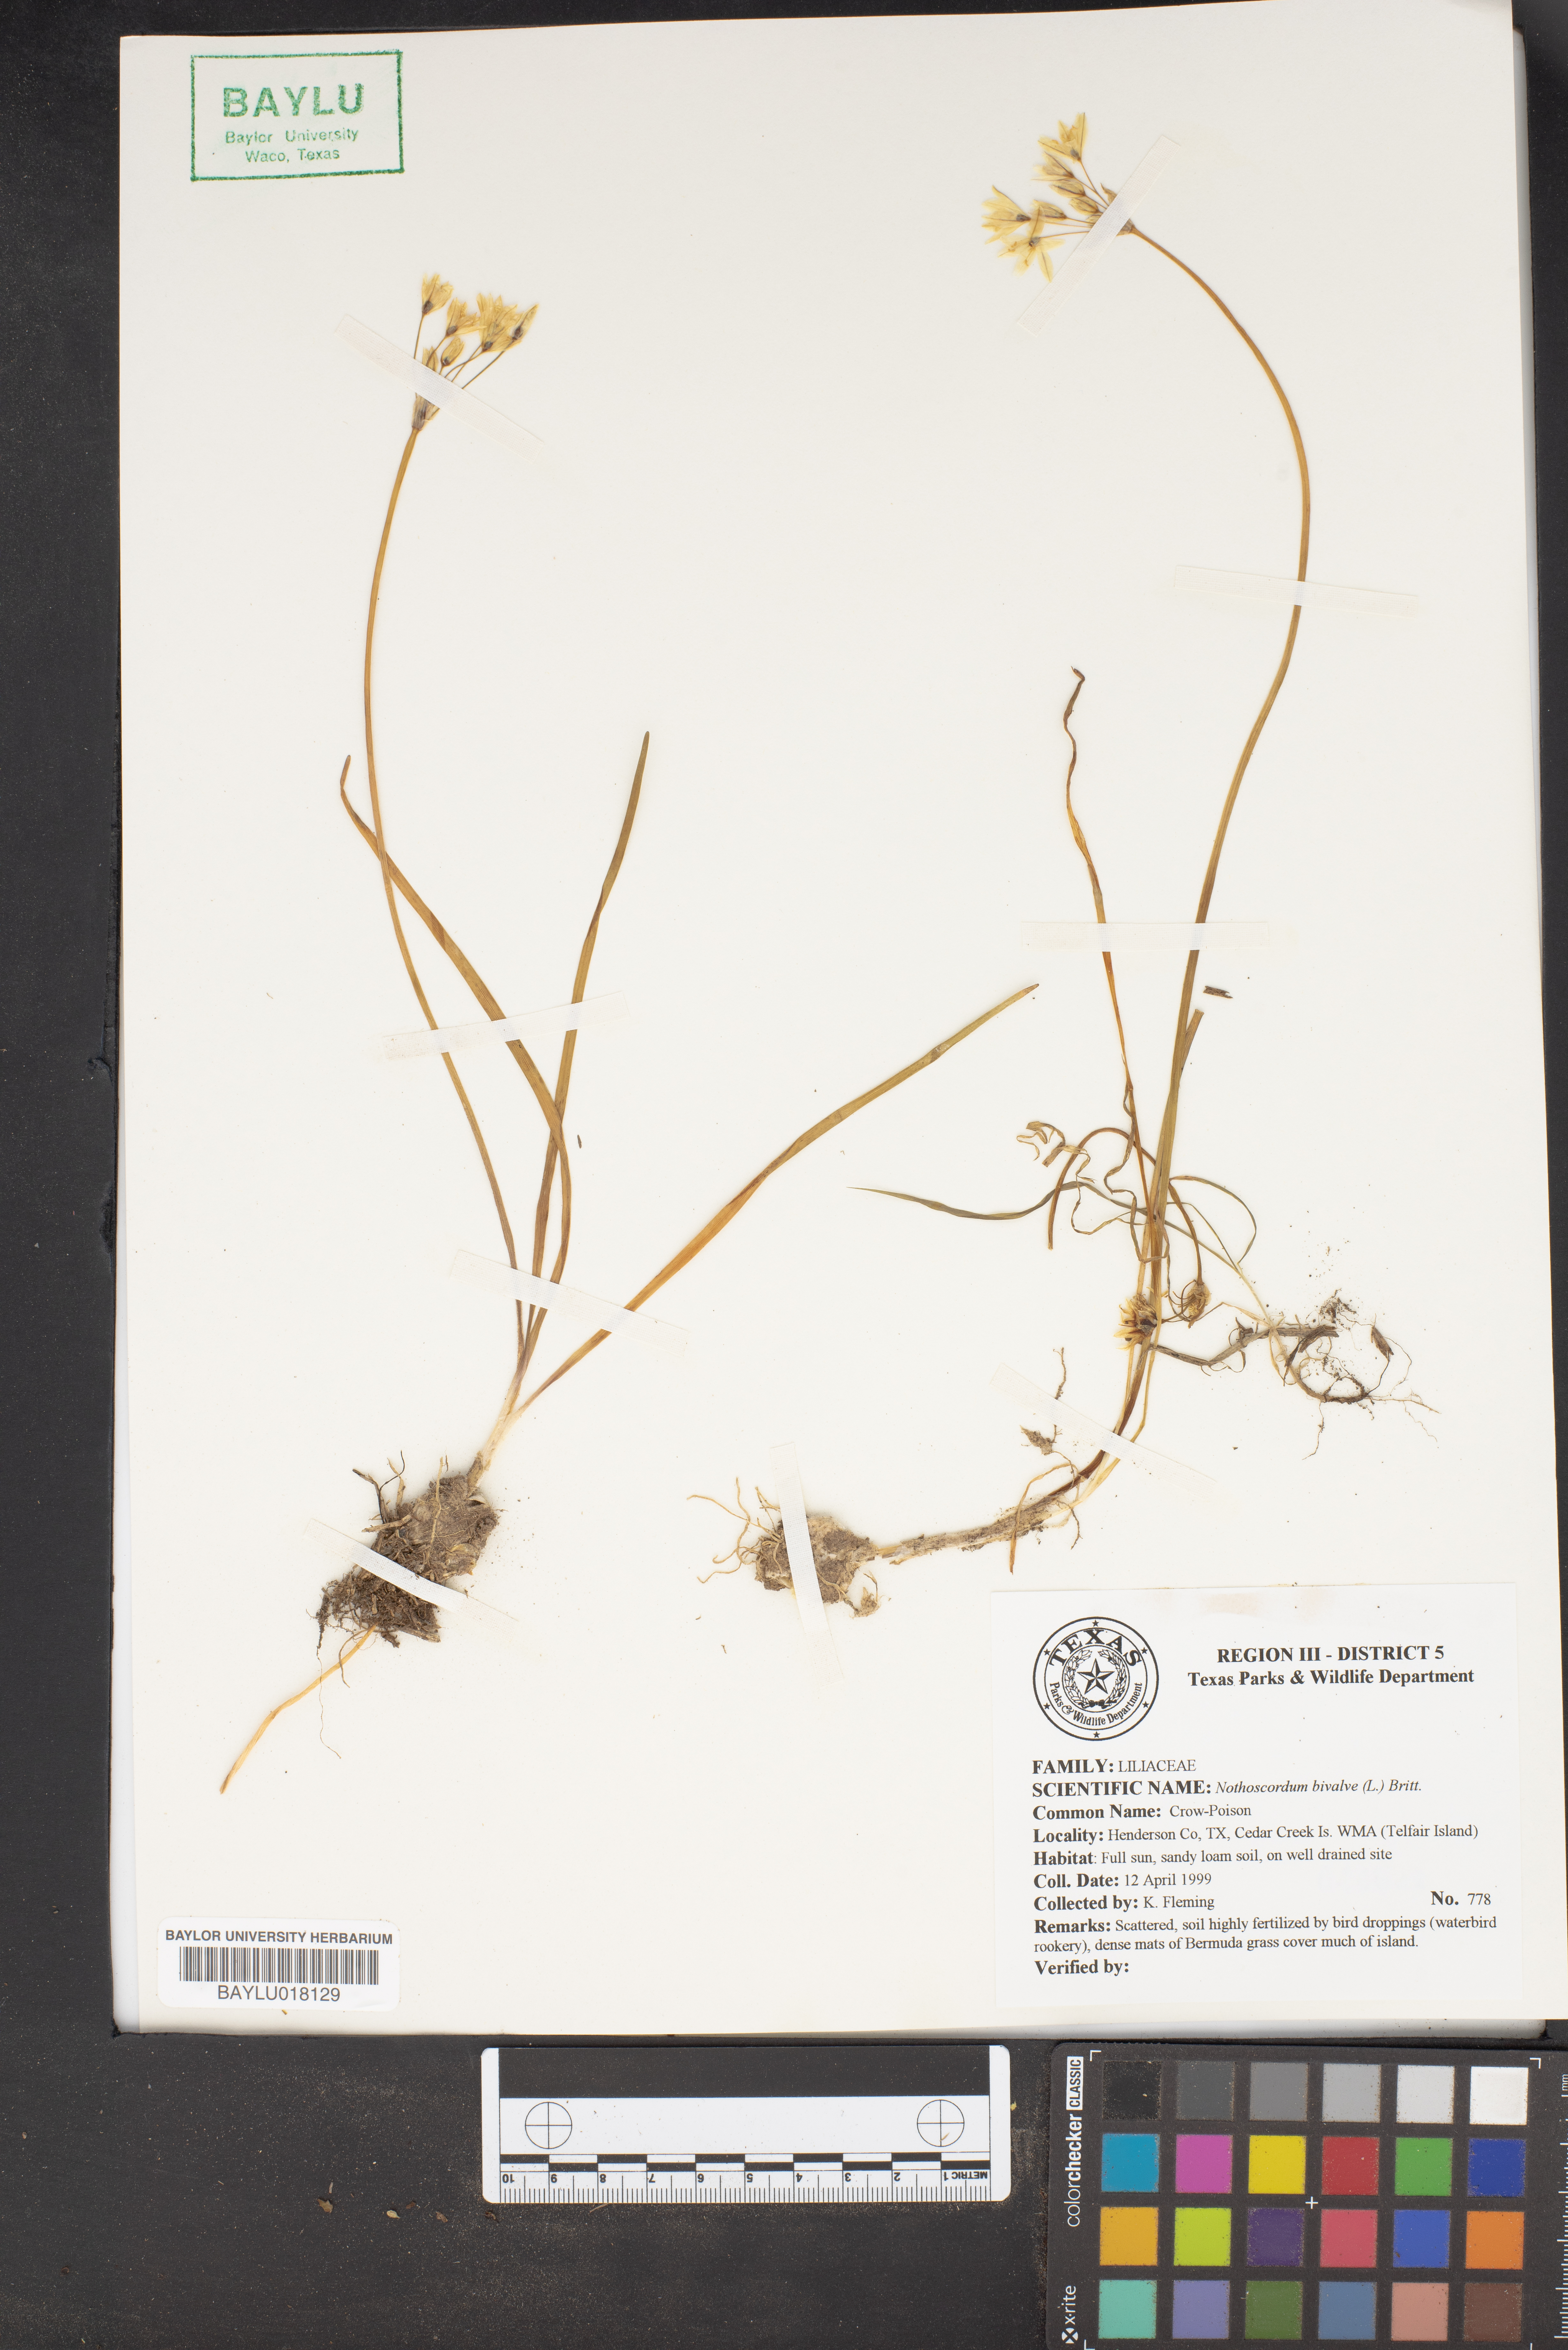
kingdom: Plantae
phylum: Tracheophyta
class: Liliopsida
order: Asparagales
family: Amaryllidaceae
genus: Nothoscordum
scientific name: Nothoscordum bivalve
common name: Crow-poison
